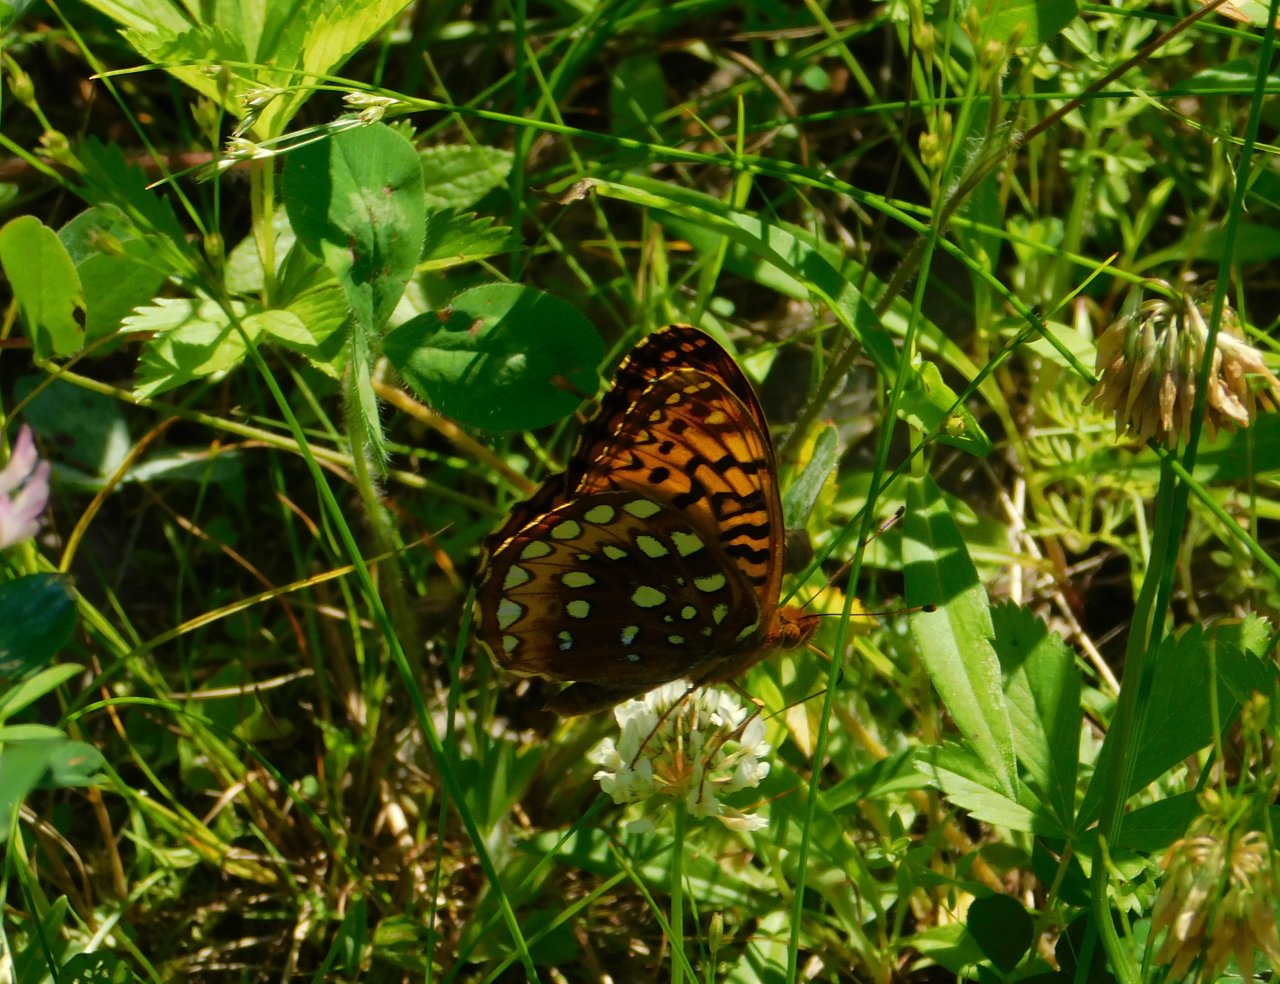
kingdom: Animalia
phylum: Arthropoda
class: Insecta
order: Lepidoptera
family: Nymphalidae
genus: Speyeria
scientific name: Speyeria cybele
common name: Great Spangled Fritillary
